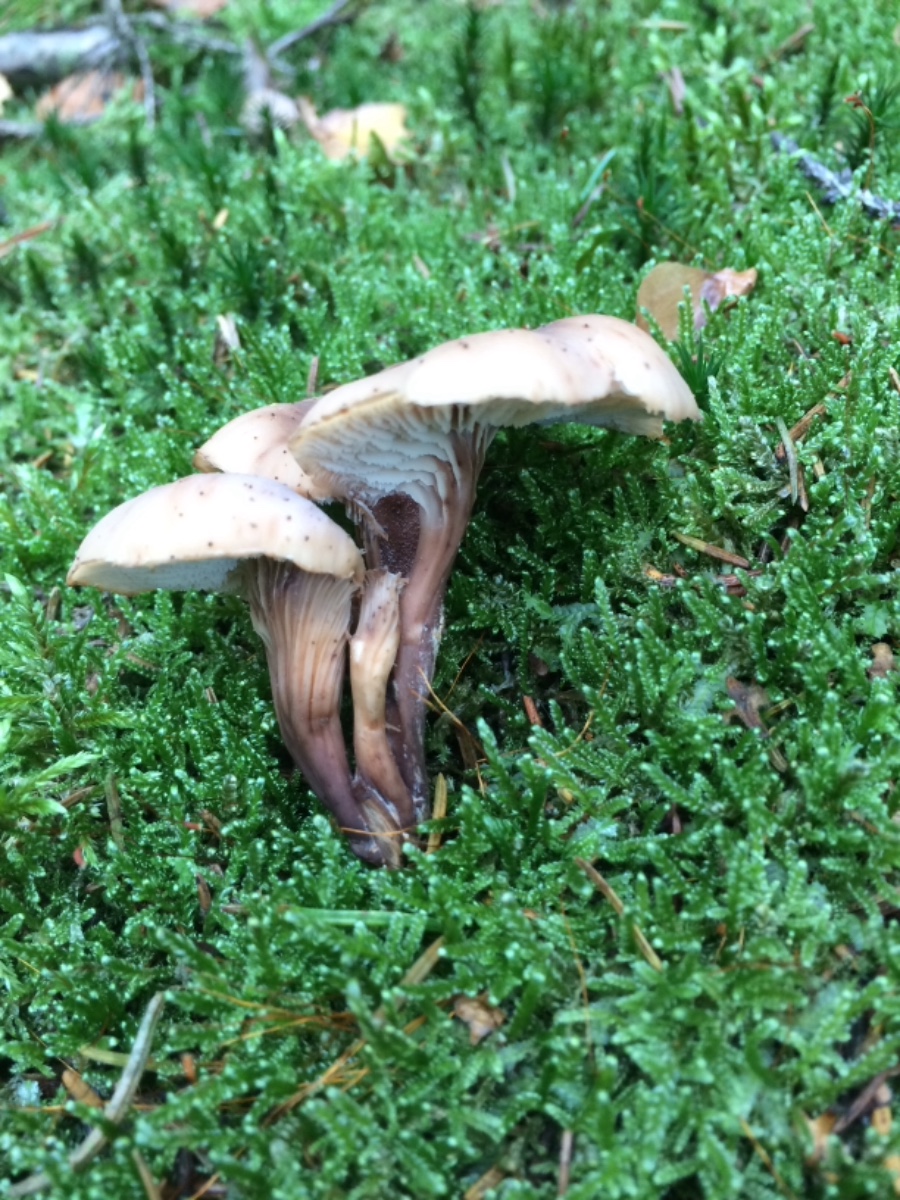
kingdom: Fungi
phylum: Basidiomycota
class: Agaricomycetes
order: Russulales
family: Auriscalpiaceae
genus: Lentinellus
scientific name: Lentinellus cochleatus
